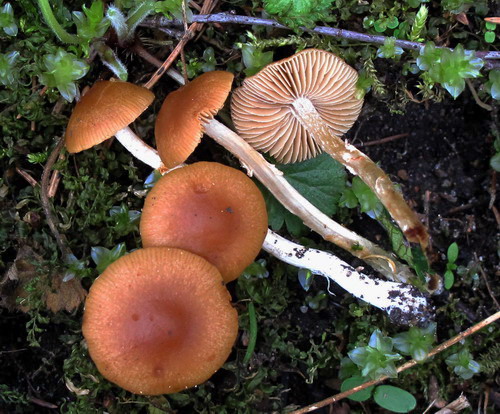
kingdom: Fungi
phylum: Basidiomycota
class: Agaricomycetes
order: Agaricales
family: Bolbitiaceae
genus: Conocybe
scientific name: Conocybe aporos
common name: tidlig dansehat
